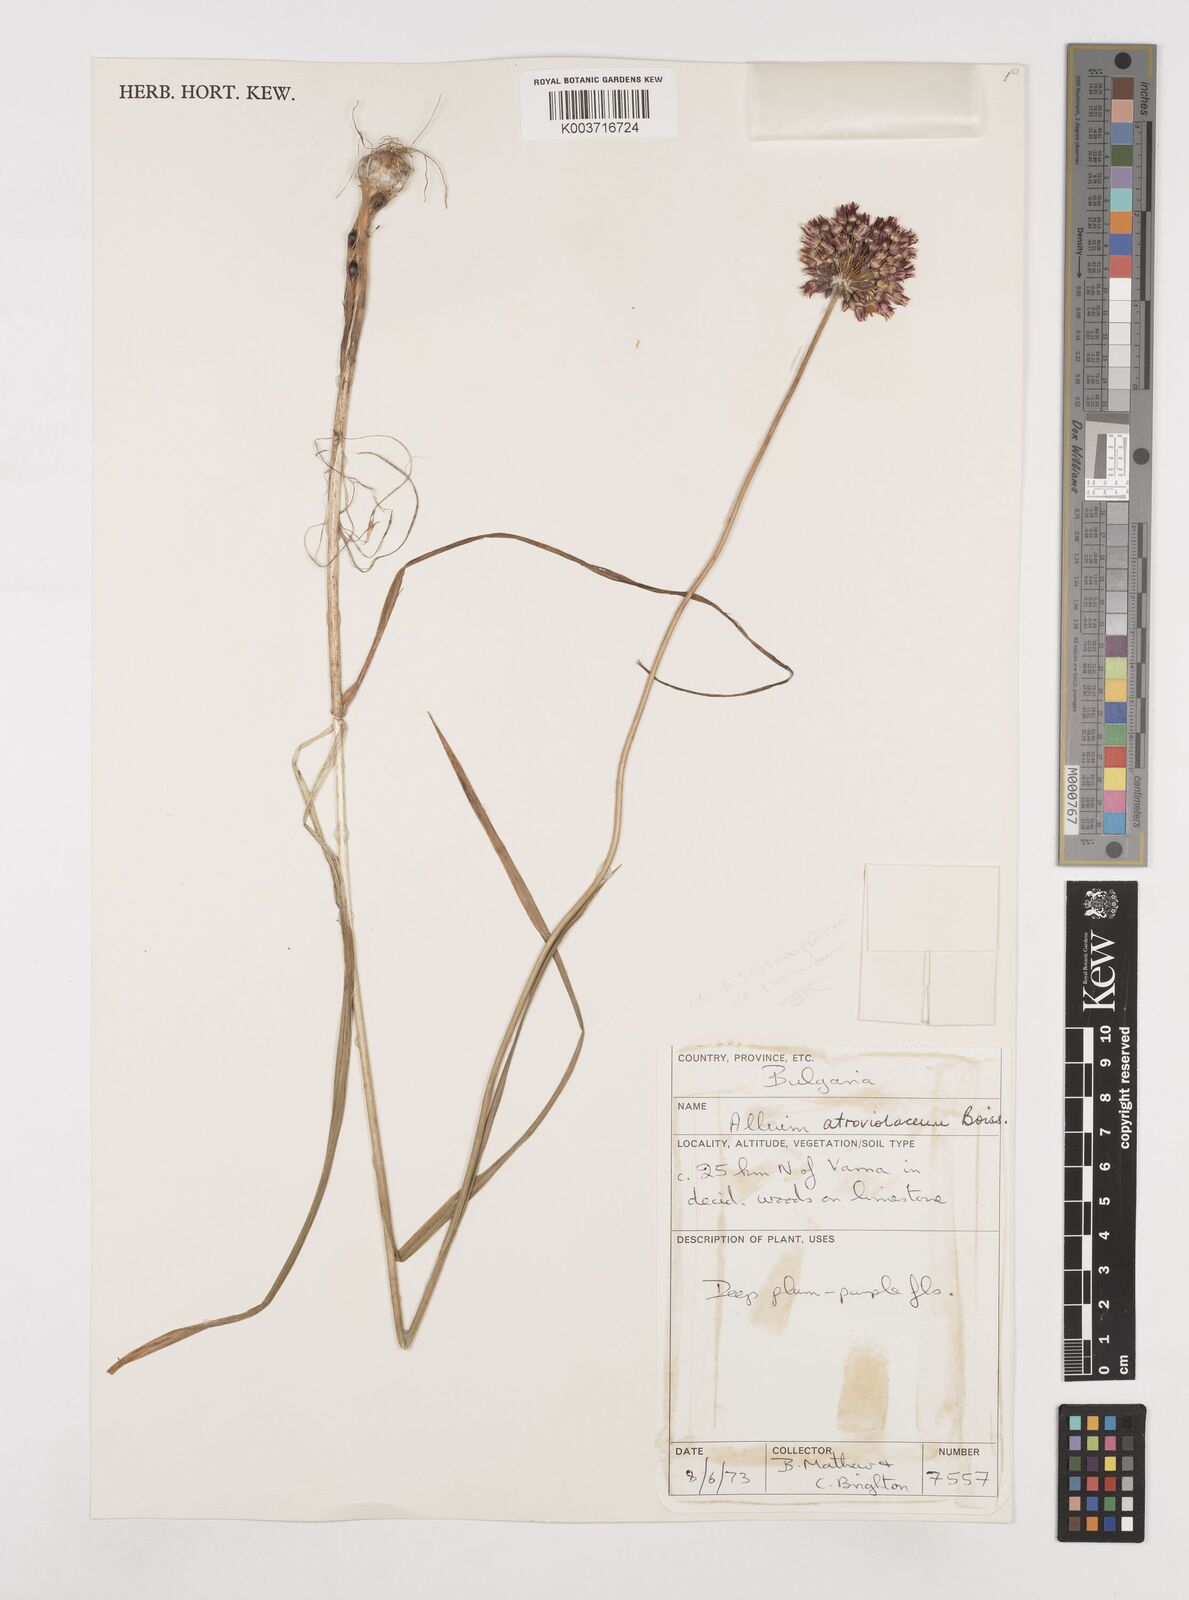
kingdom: Plantae
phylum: Tracheophyta
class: Liliopsida
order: Asparagales
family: Amaryllidaceae
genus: Allium
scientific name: Allium sphaerocephalon
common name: Round-headed leek
